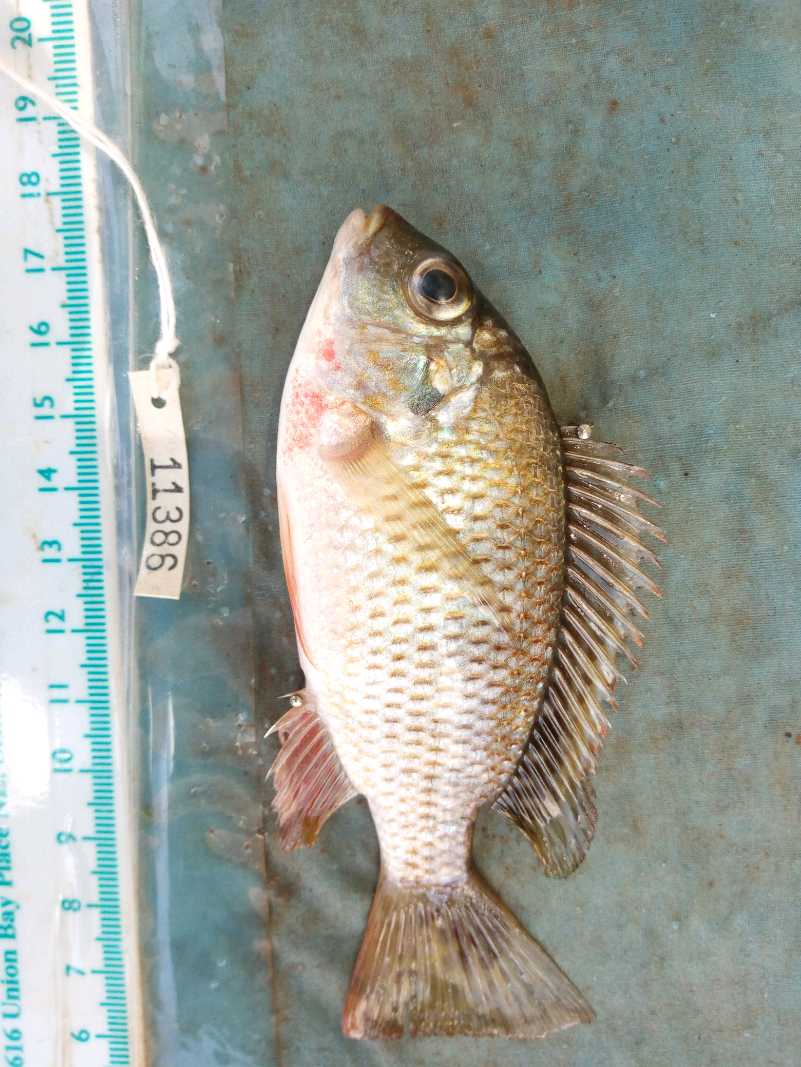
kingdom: Animalia
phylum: Chordata
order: Perciformes
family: Cichlidae
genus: Coptodon
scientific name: Coptodon rendalli
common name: Redbreast tilapia
